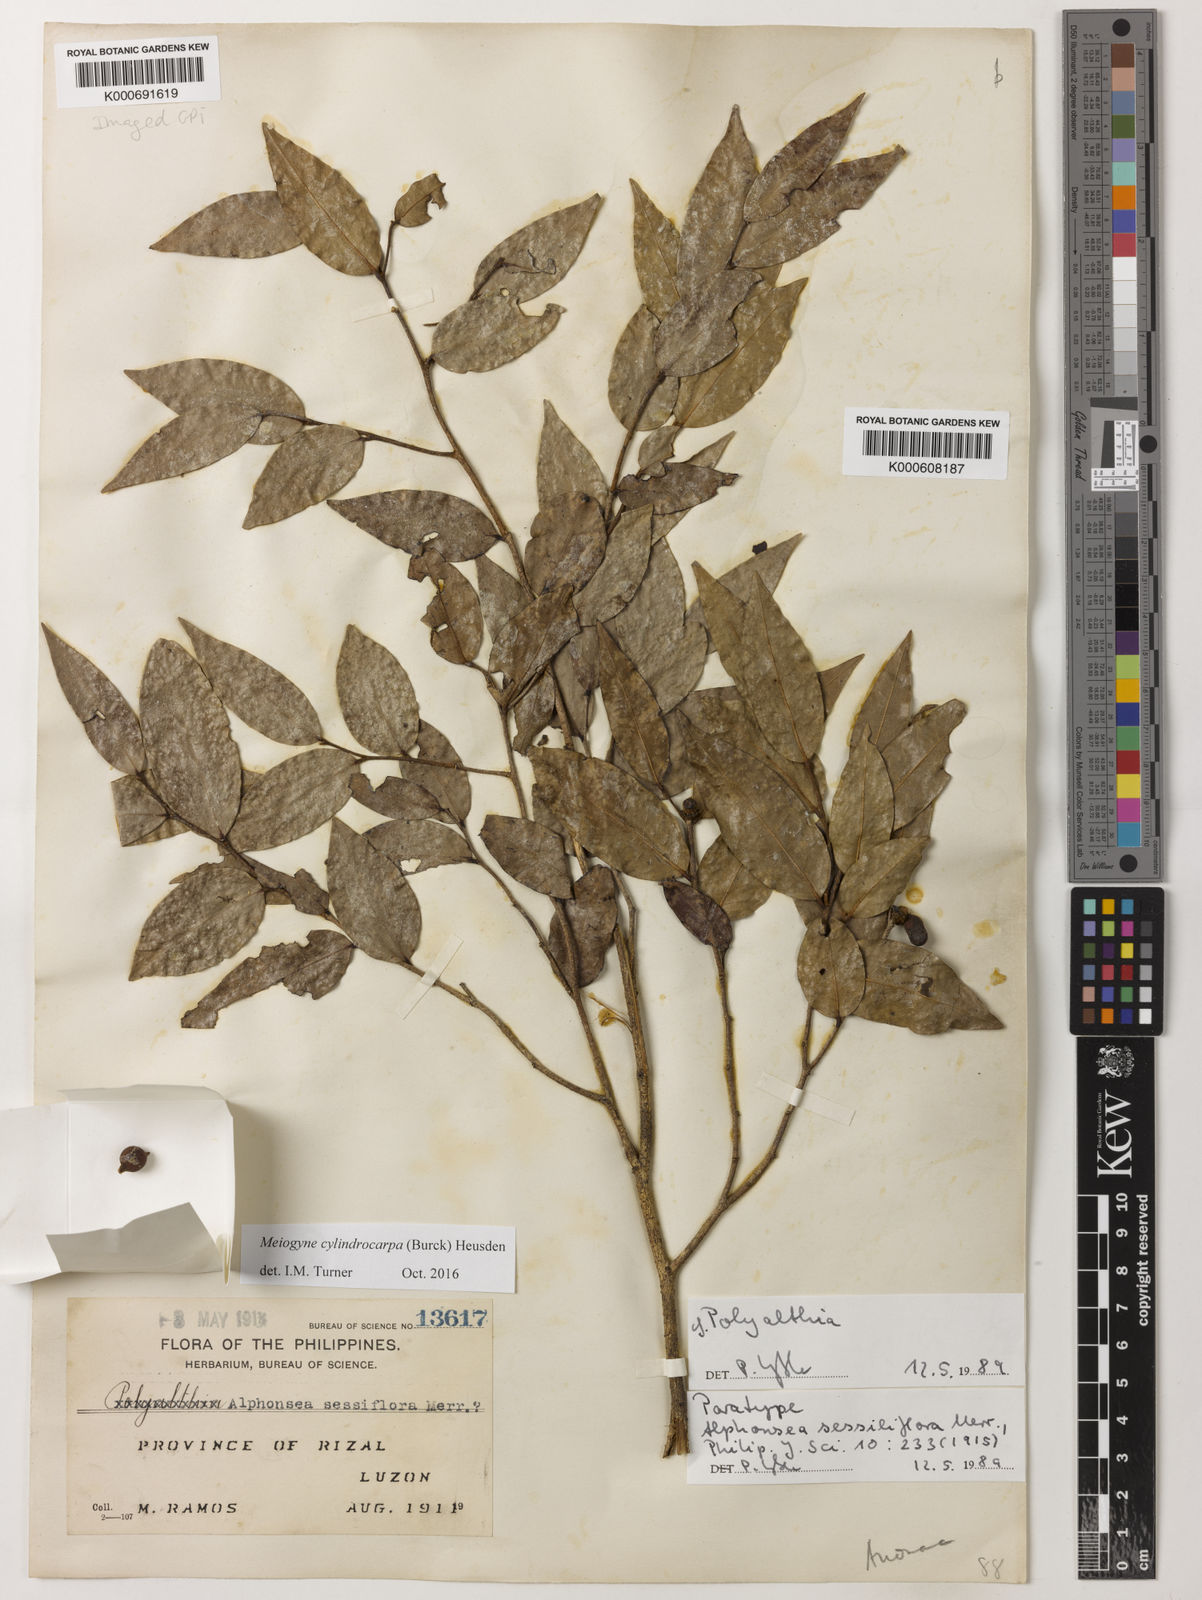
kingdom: Plantae
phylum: Tracheophyta
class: Magnoliopsida
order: Magnoliales
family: Annonaceae
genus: Polyalthia
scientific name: Polyalthia
